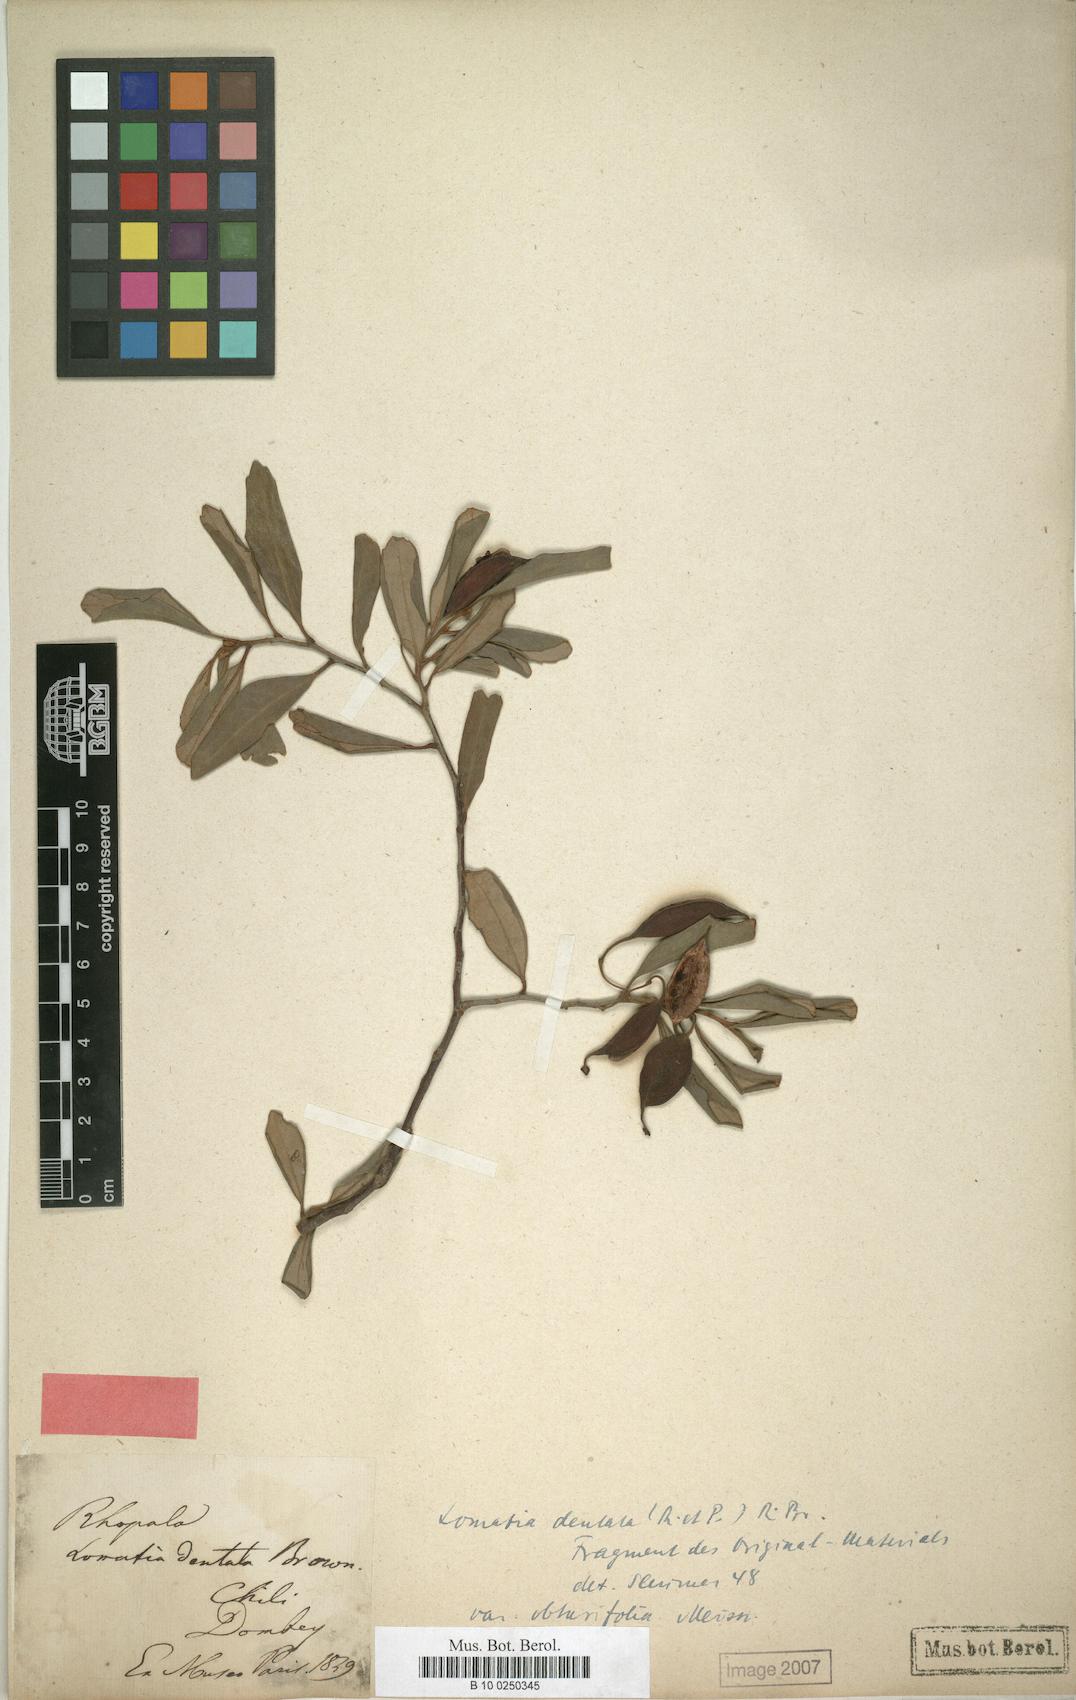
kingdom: Plantae
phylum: Tracheophyta
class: Magnoliopsida
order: Proteales
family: Proteaceae
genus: Lomatia
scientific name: Lomatia dentata
